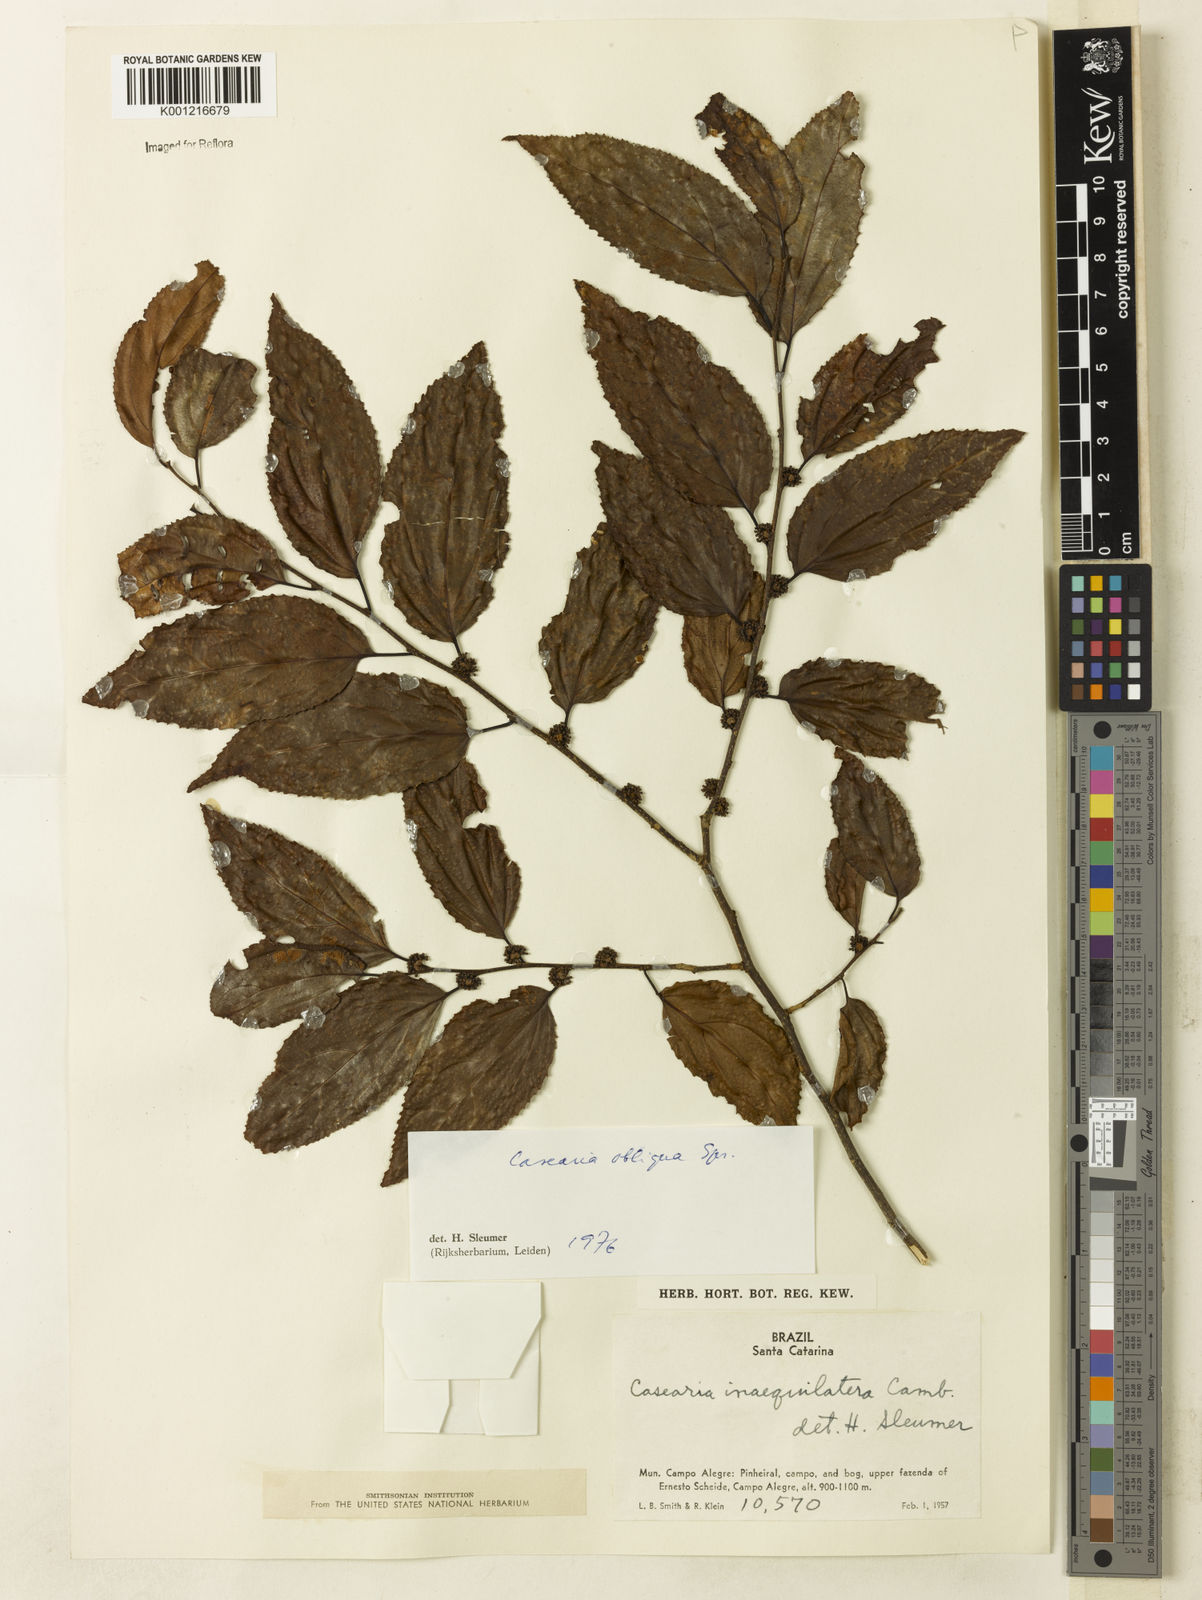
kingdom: Plantae
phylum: Tracheophyta
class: Magnoliopsida
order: Malpighiales
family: Salicaceae
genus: Casearia
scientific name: Casearia obliqua
